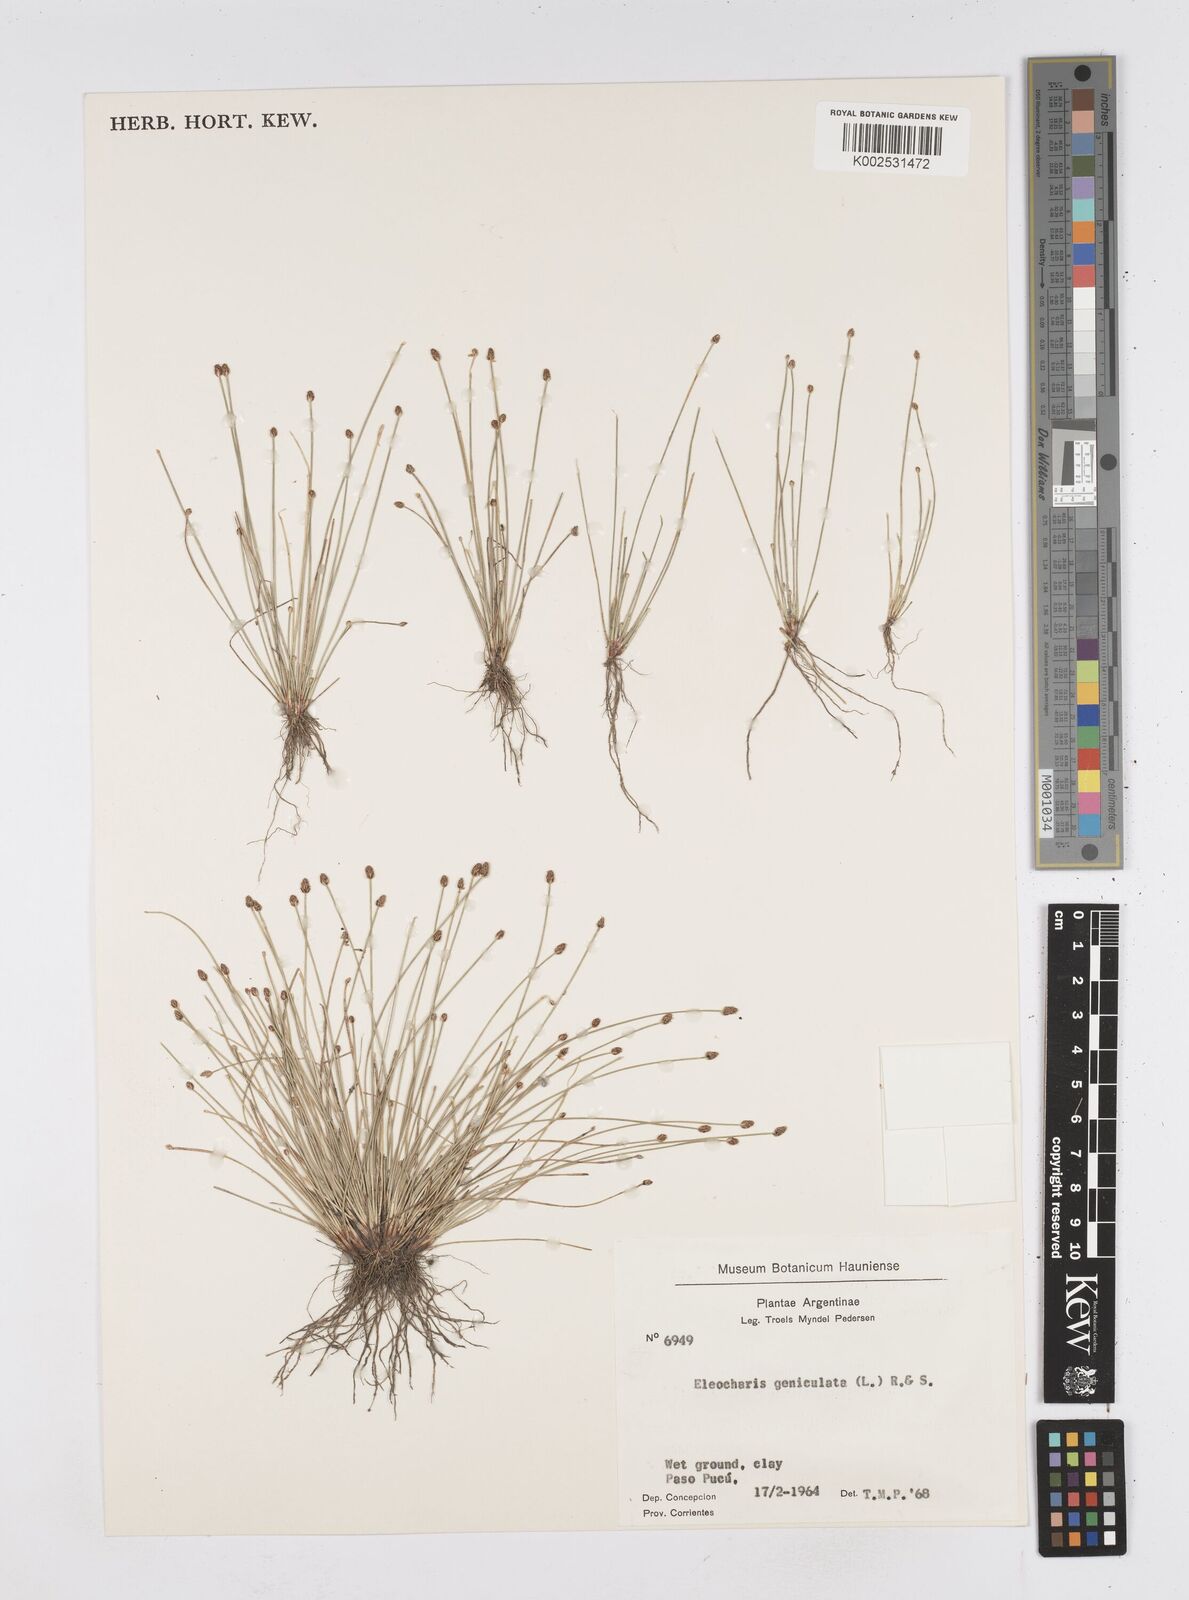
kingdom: Plantae
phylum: Tracheophyta
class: Liliopsida
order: Poales
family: Cyperaceae
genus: Eleocharis
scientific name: Eleocharis geniculata
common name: Canada spikesedge
